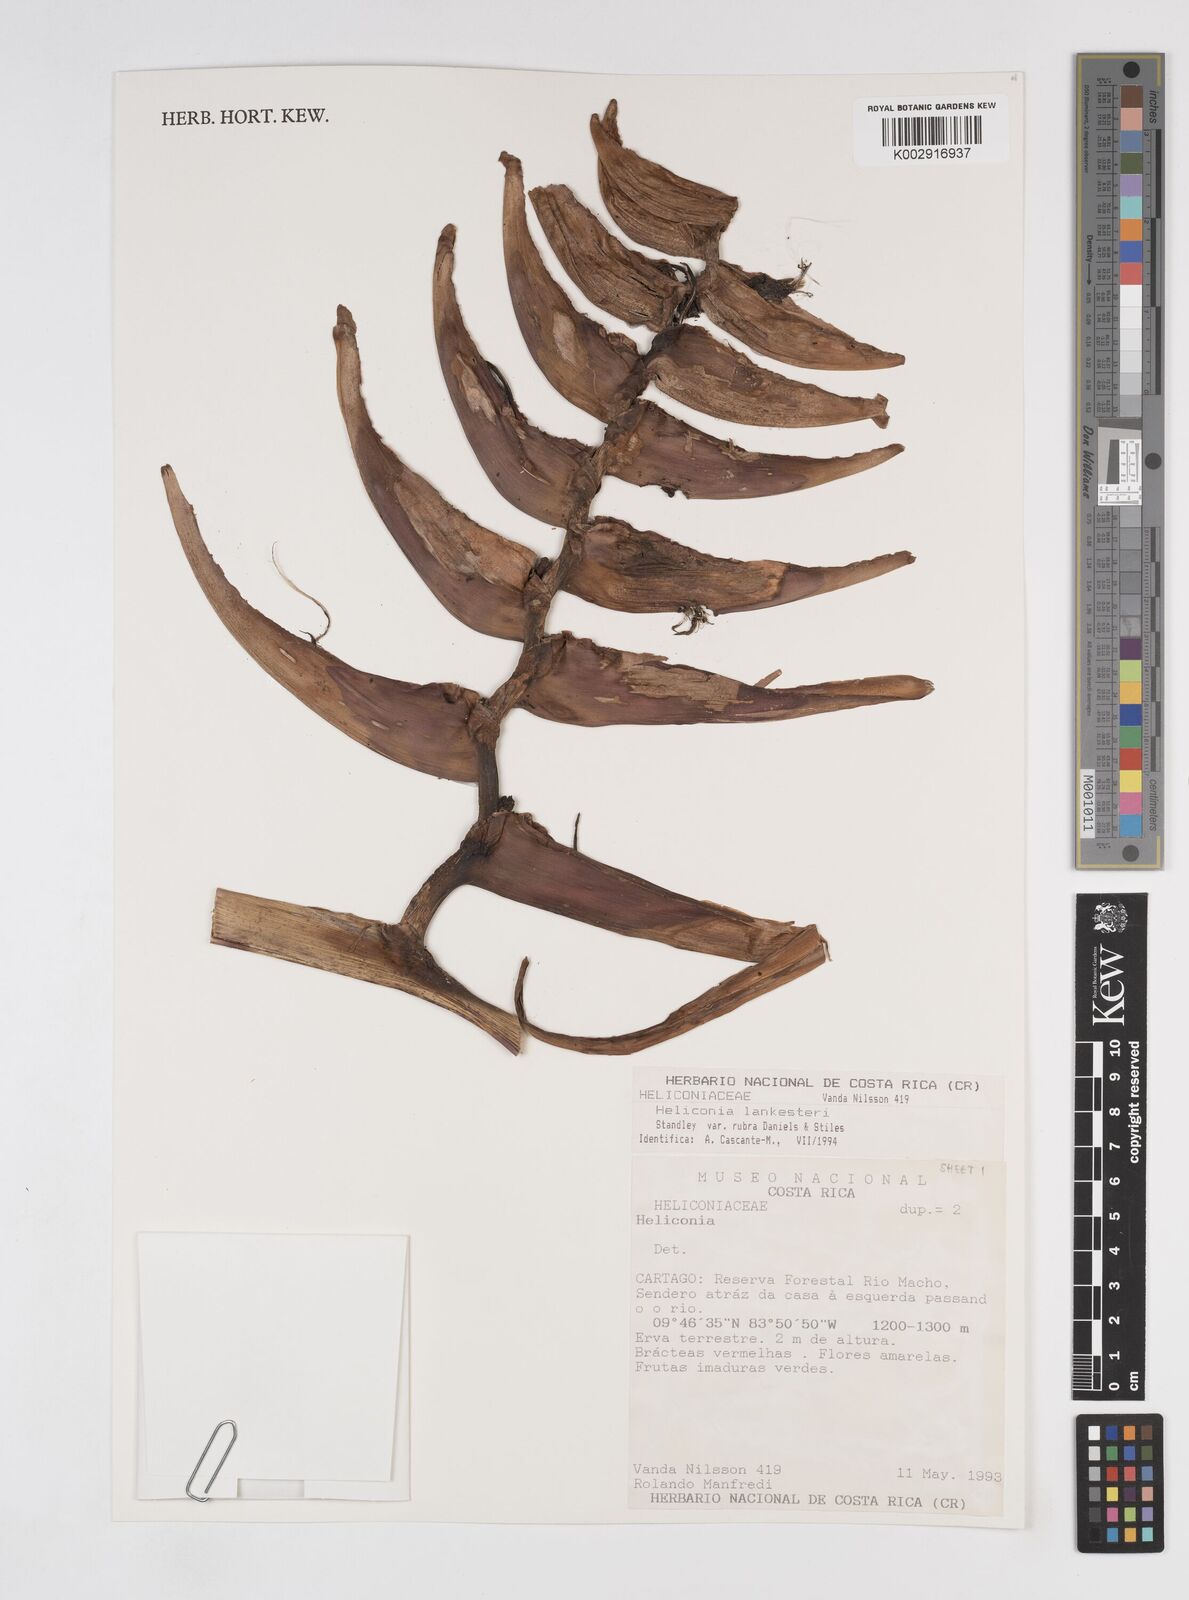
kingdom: Plantae
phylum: Tracheophyta
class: Liliopsida
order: Zingiberales
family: Heliconiaceae
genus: Heliconia
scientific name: Heliconia lankesteri
